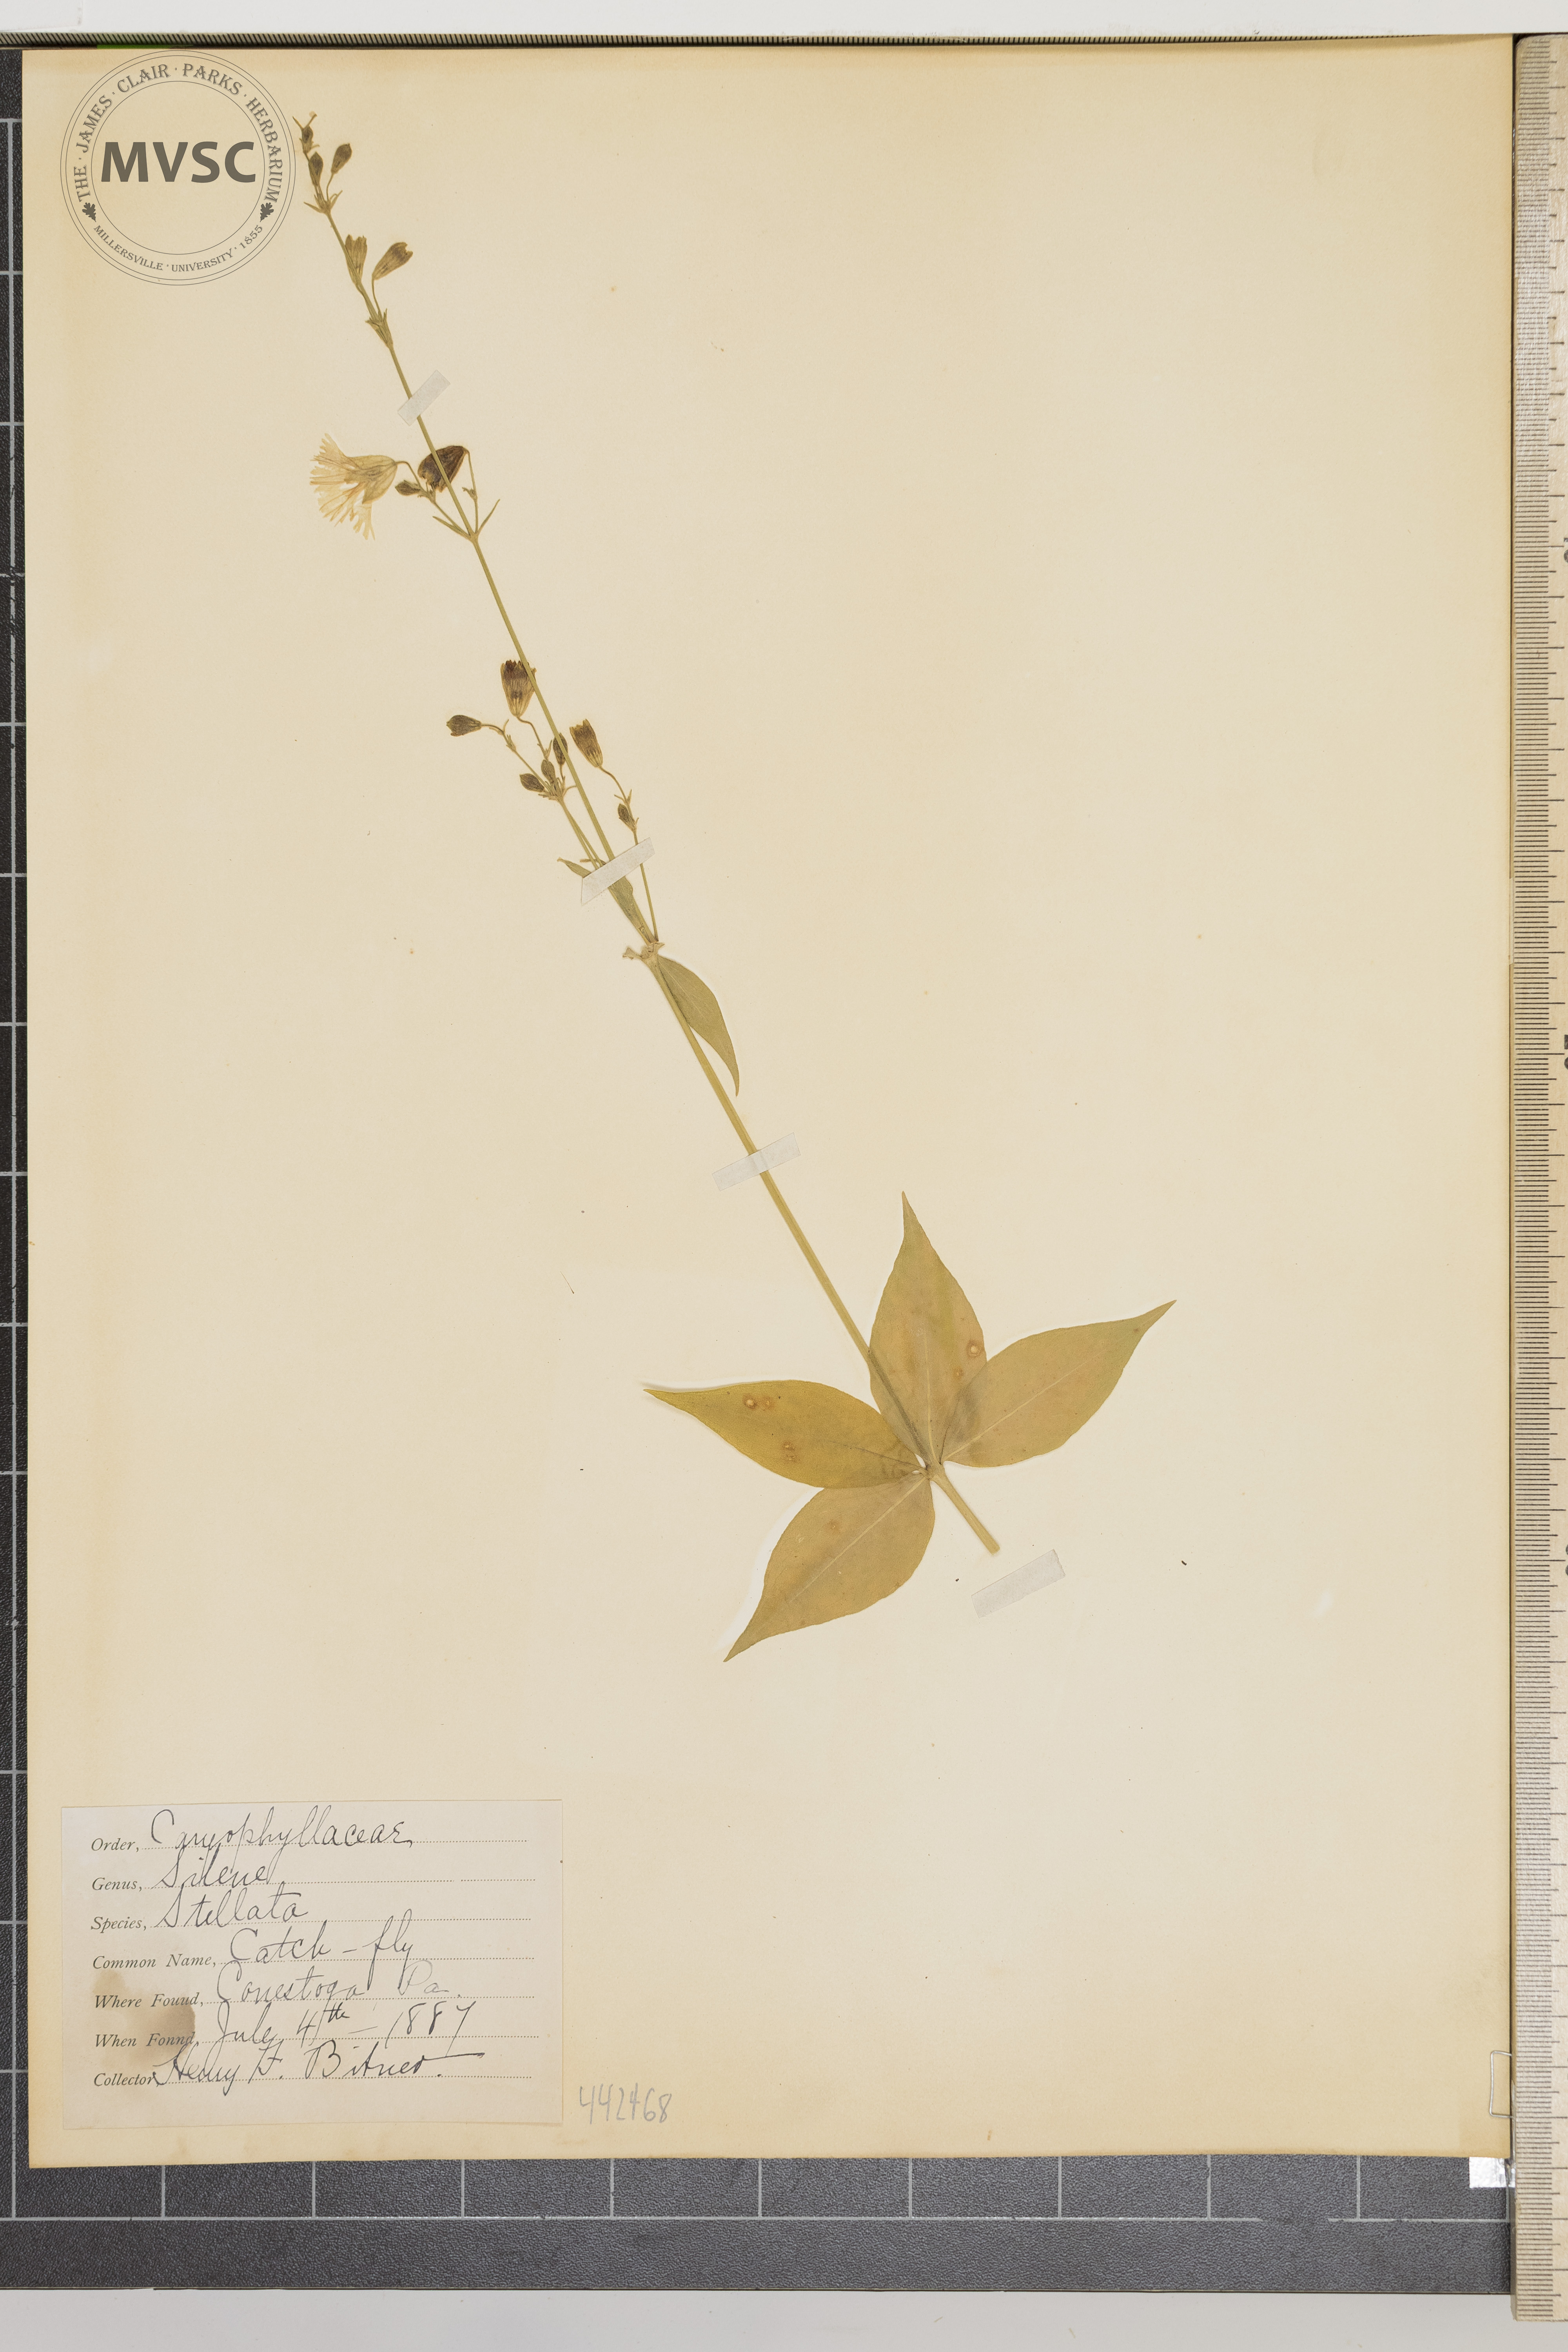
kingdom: Plantae
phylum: Tracheophyta
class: Magnoliopsida
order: Caryophyllales
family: Caryophyllaceae
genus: Silene
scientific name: Silene stellata
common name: Catch-fly
